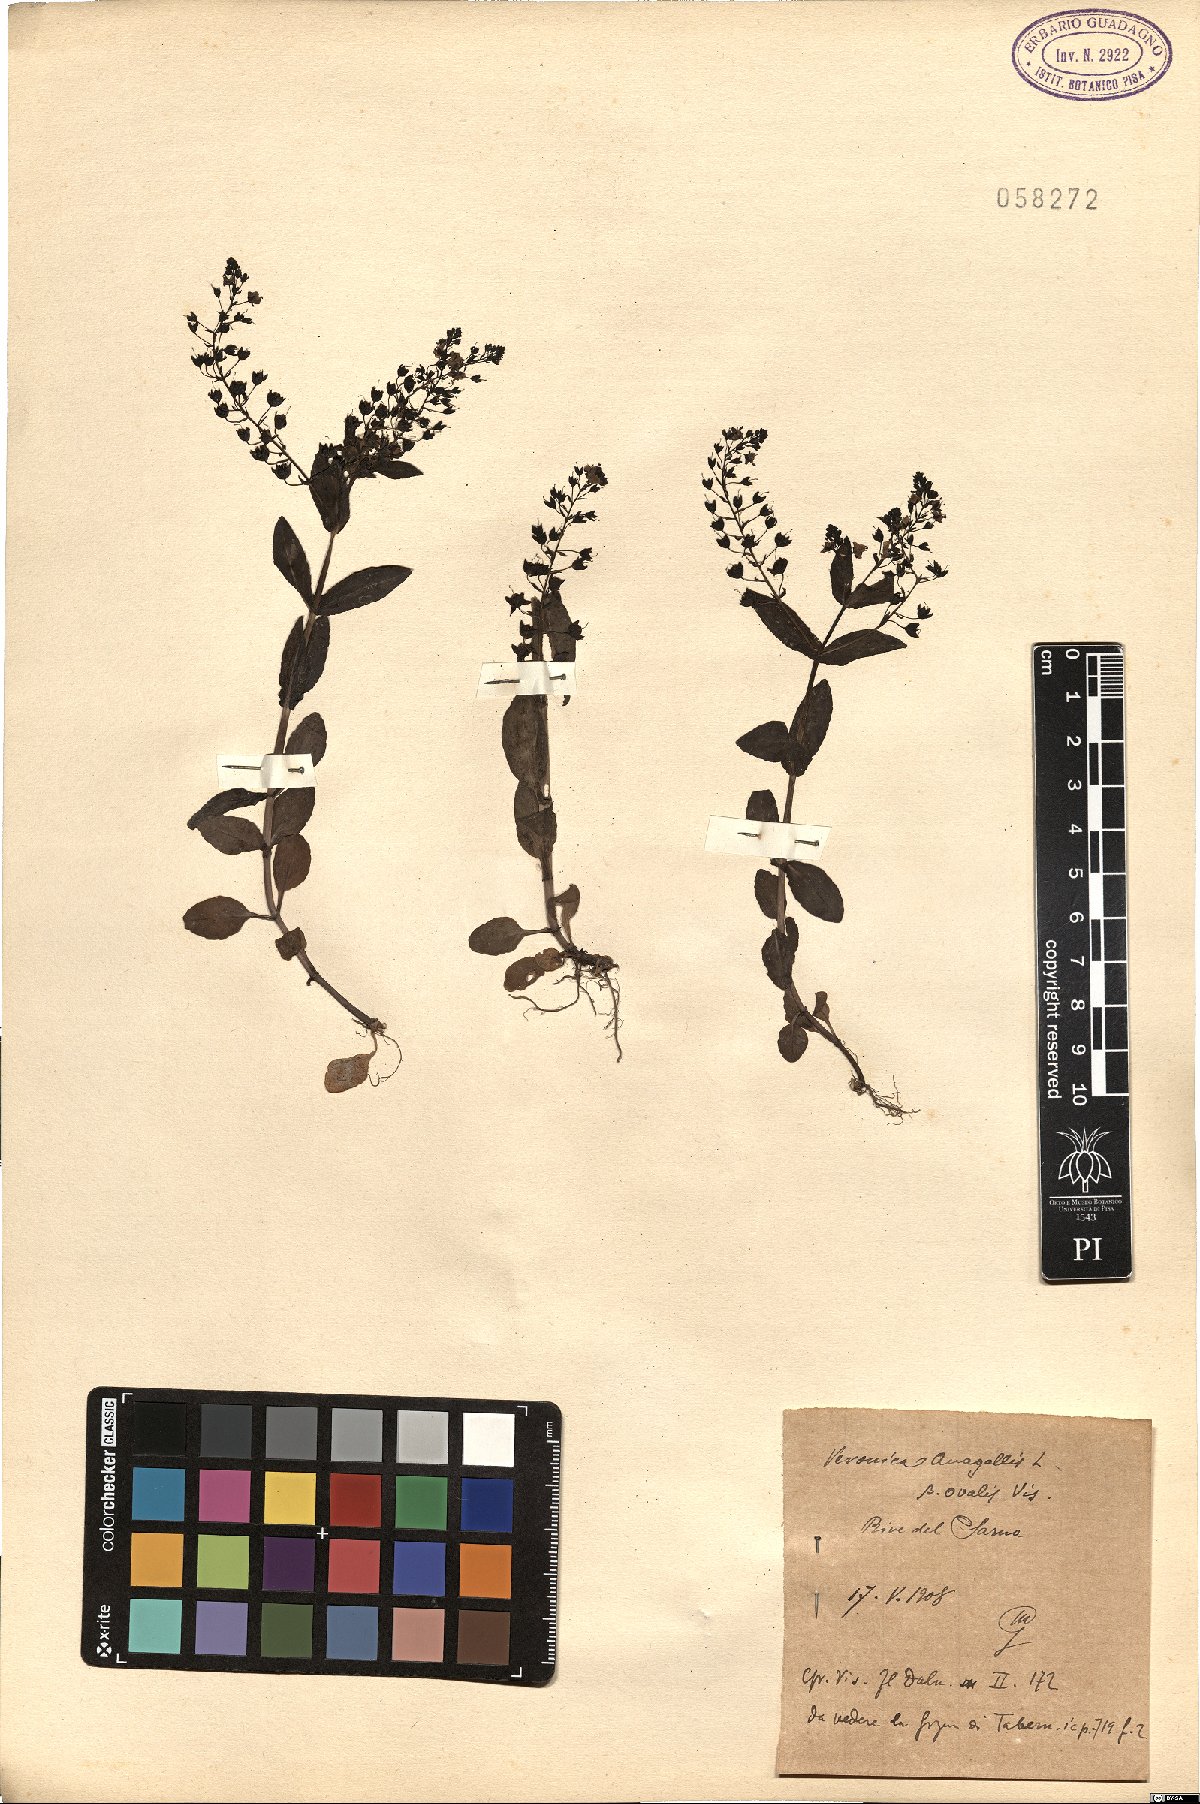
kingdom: Plantae
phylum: Tracheophyta
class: Magnoliopsida
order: Lamiales
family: Plantaginaceae
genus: Veronica
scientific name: Veronica anagallis
